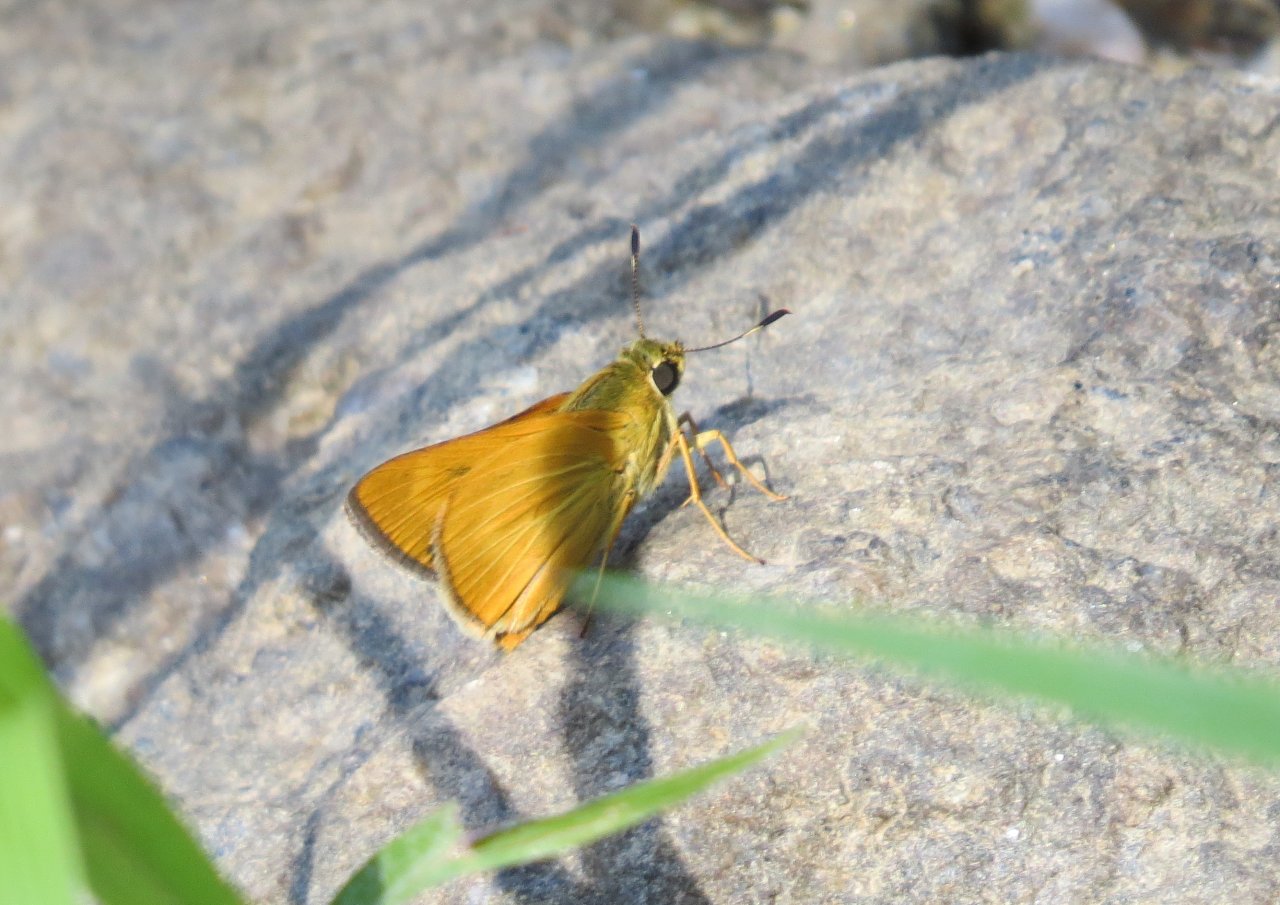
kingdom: Animalia
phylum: Arthropoda
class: Insecta
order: Lepidoptera
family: Hesperiidae
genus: Problema
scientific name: Problema byssus
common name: Byssus Skipper
